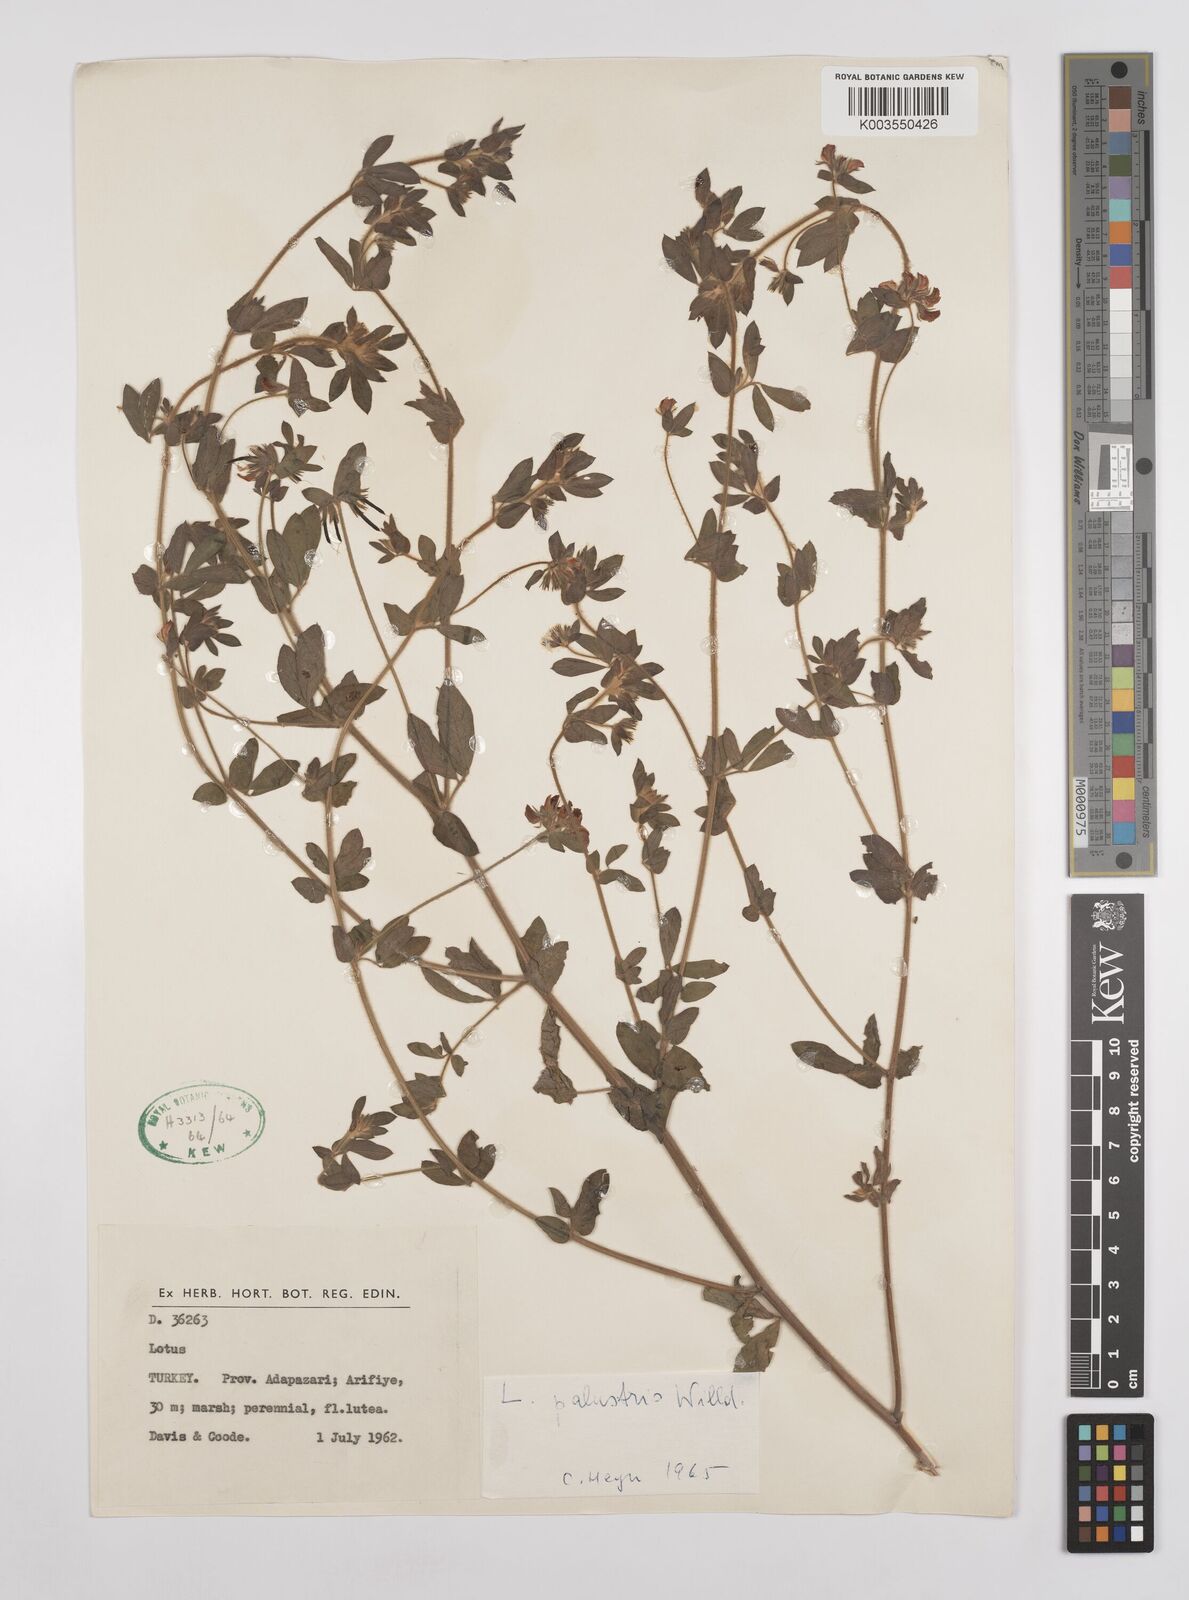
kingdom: Plantae
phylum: Tracheophyta
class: Magnoliopsida
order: Fabales
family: Fabaceae
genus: Lotus
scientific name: Lotus palustris
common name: Large birds-foot trefoil
